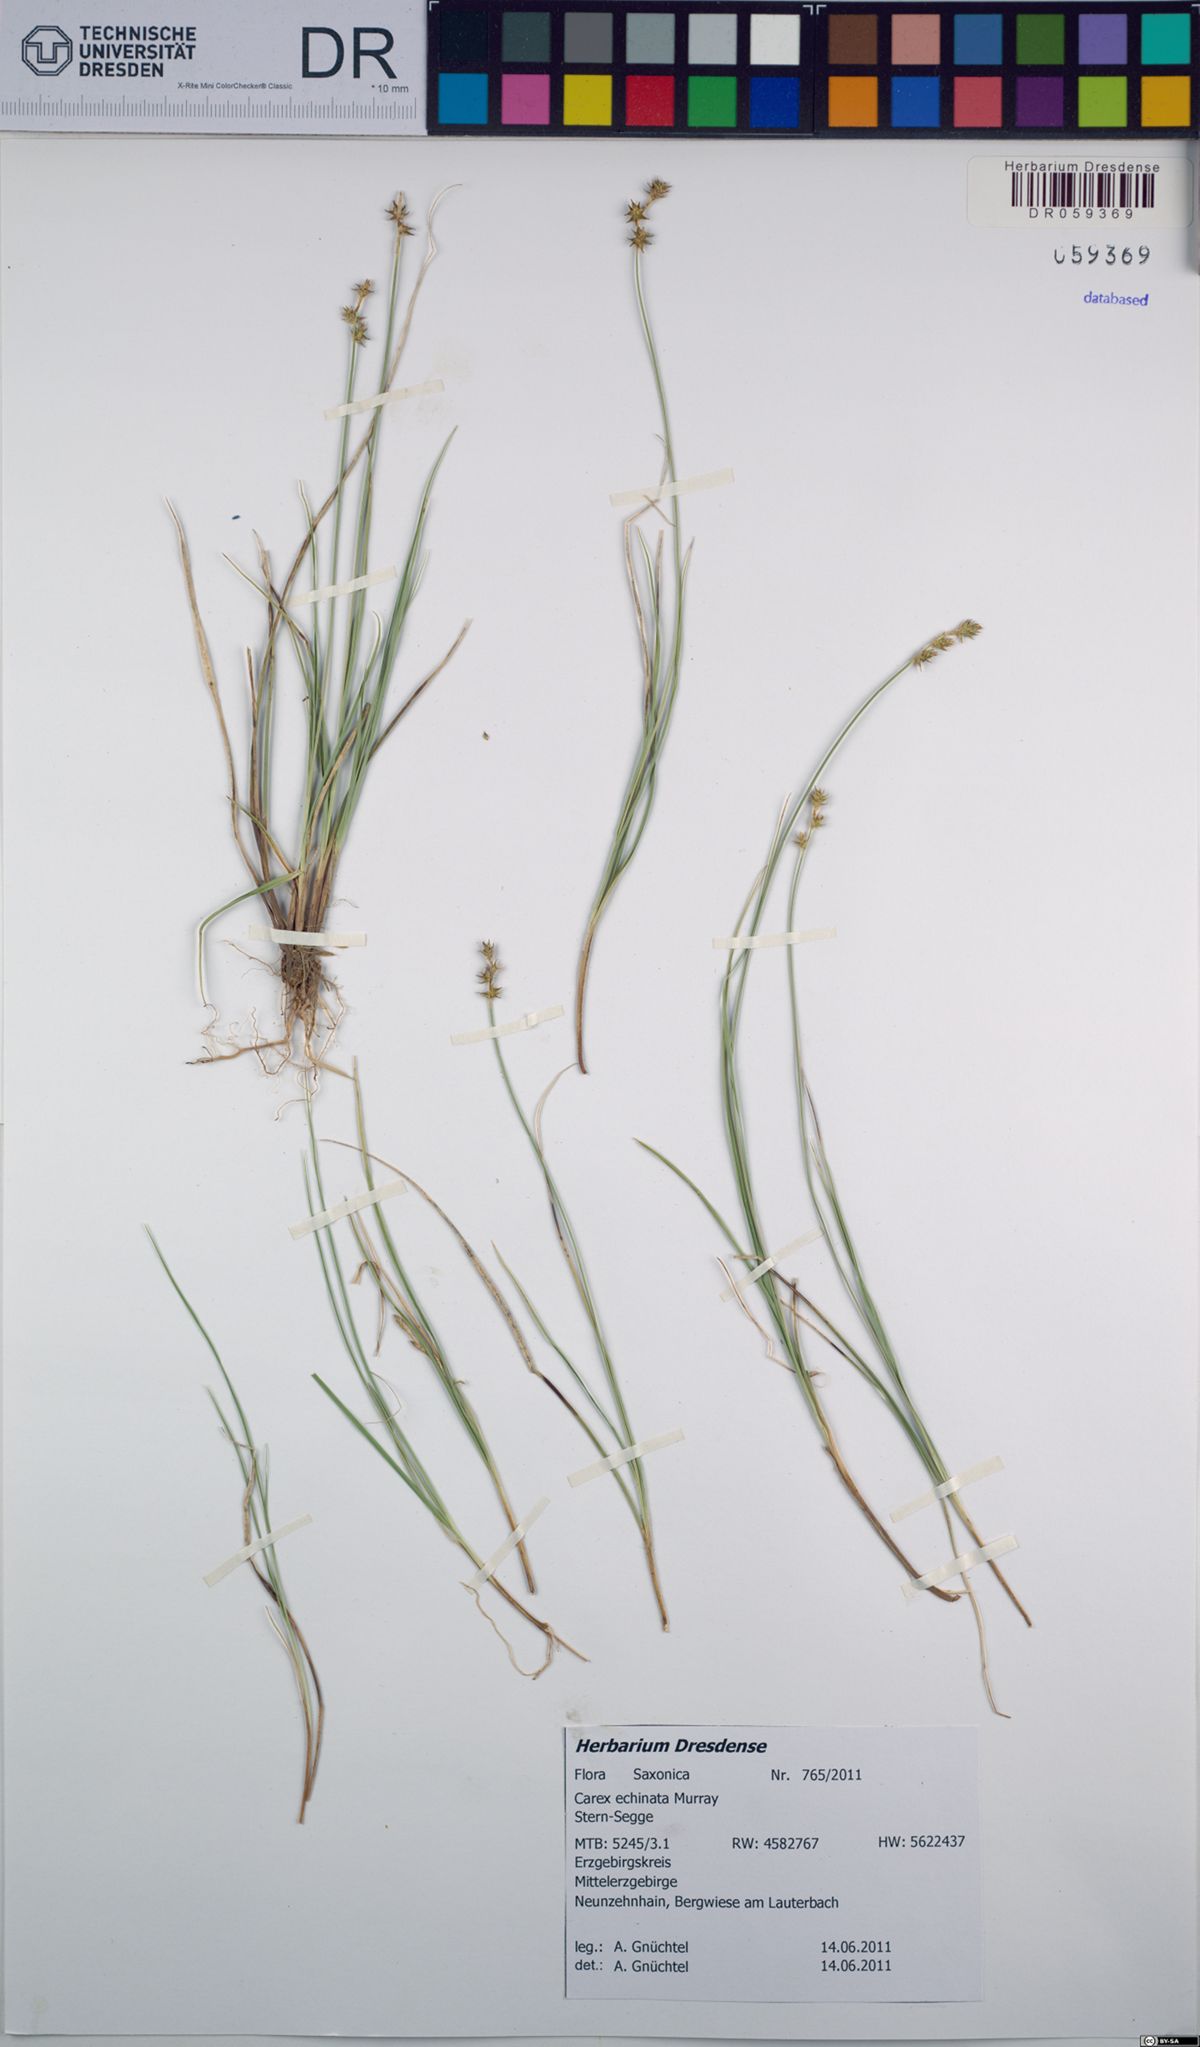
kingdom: Plantae
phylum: Tracheophyta
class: Liliopsida
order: Poales
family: Cyperaceae
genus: Carex
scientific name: Carex echinata
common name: Star sedge
